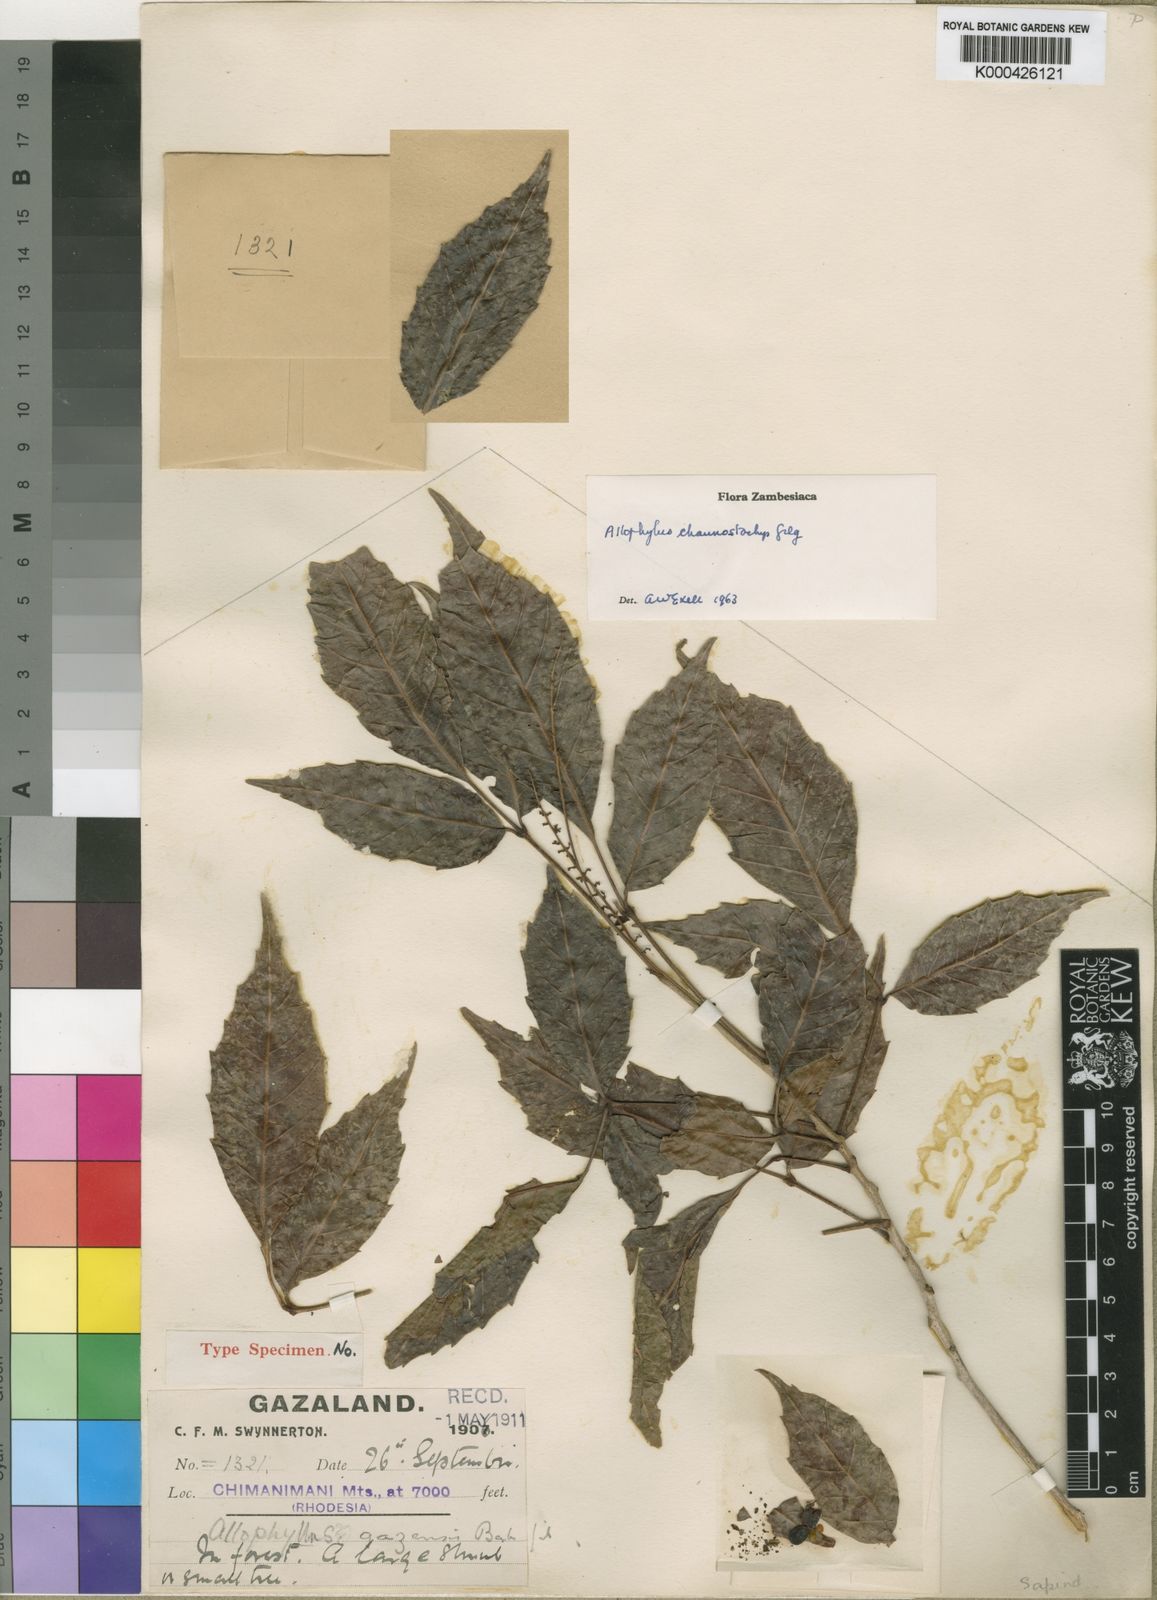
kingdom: Plantae
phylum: Tracheophyta
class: Magnoliopsida
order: Sapindales
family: Sapindaceae
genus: Allophylus
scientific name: Allophylus chaunostachys
